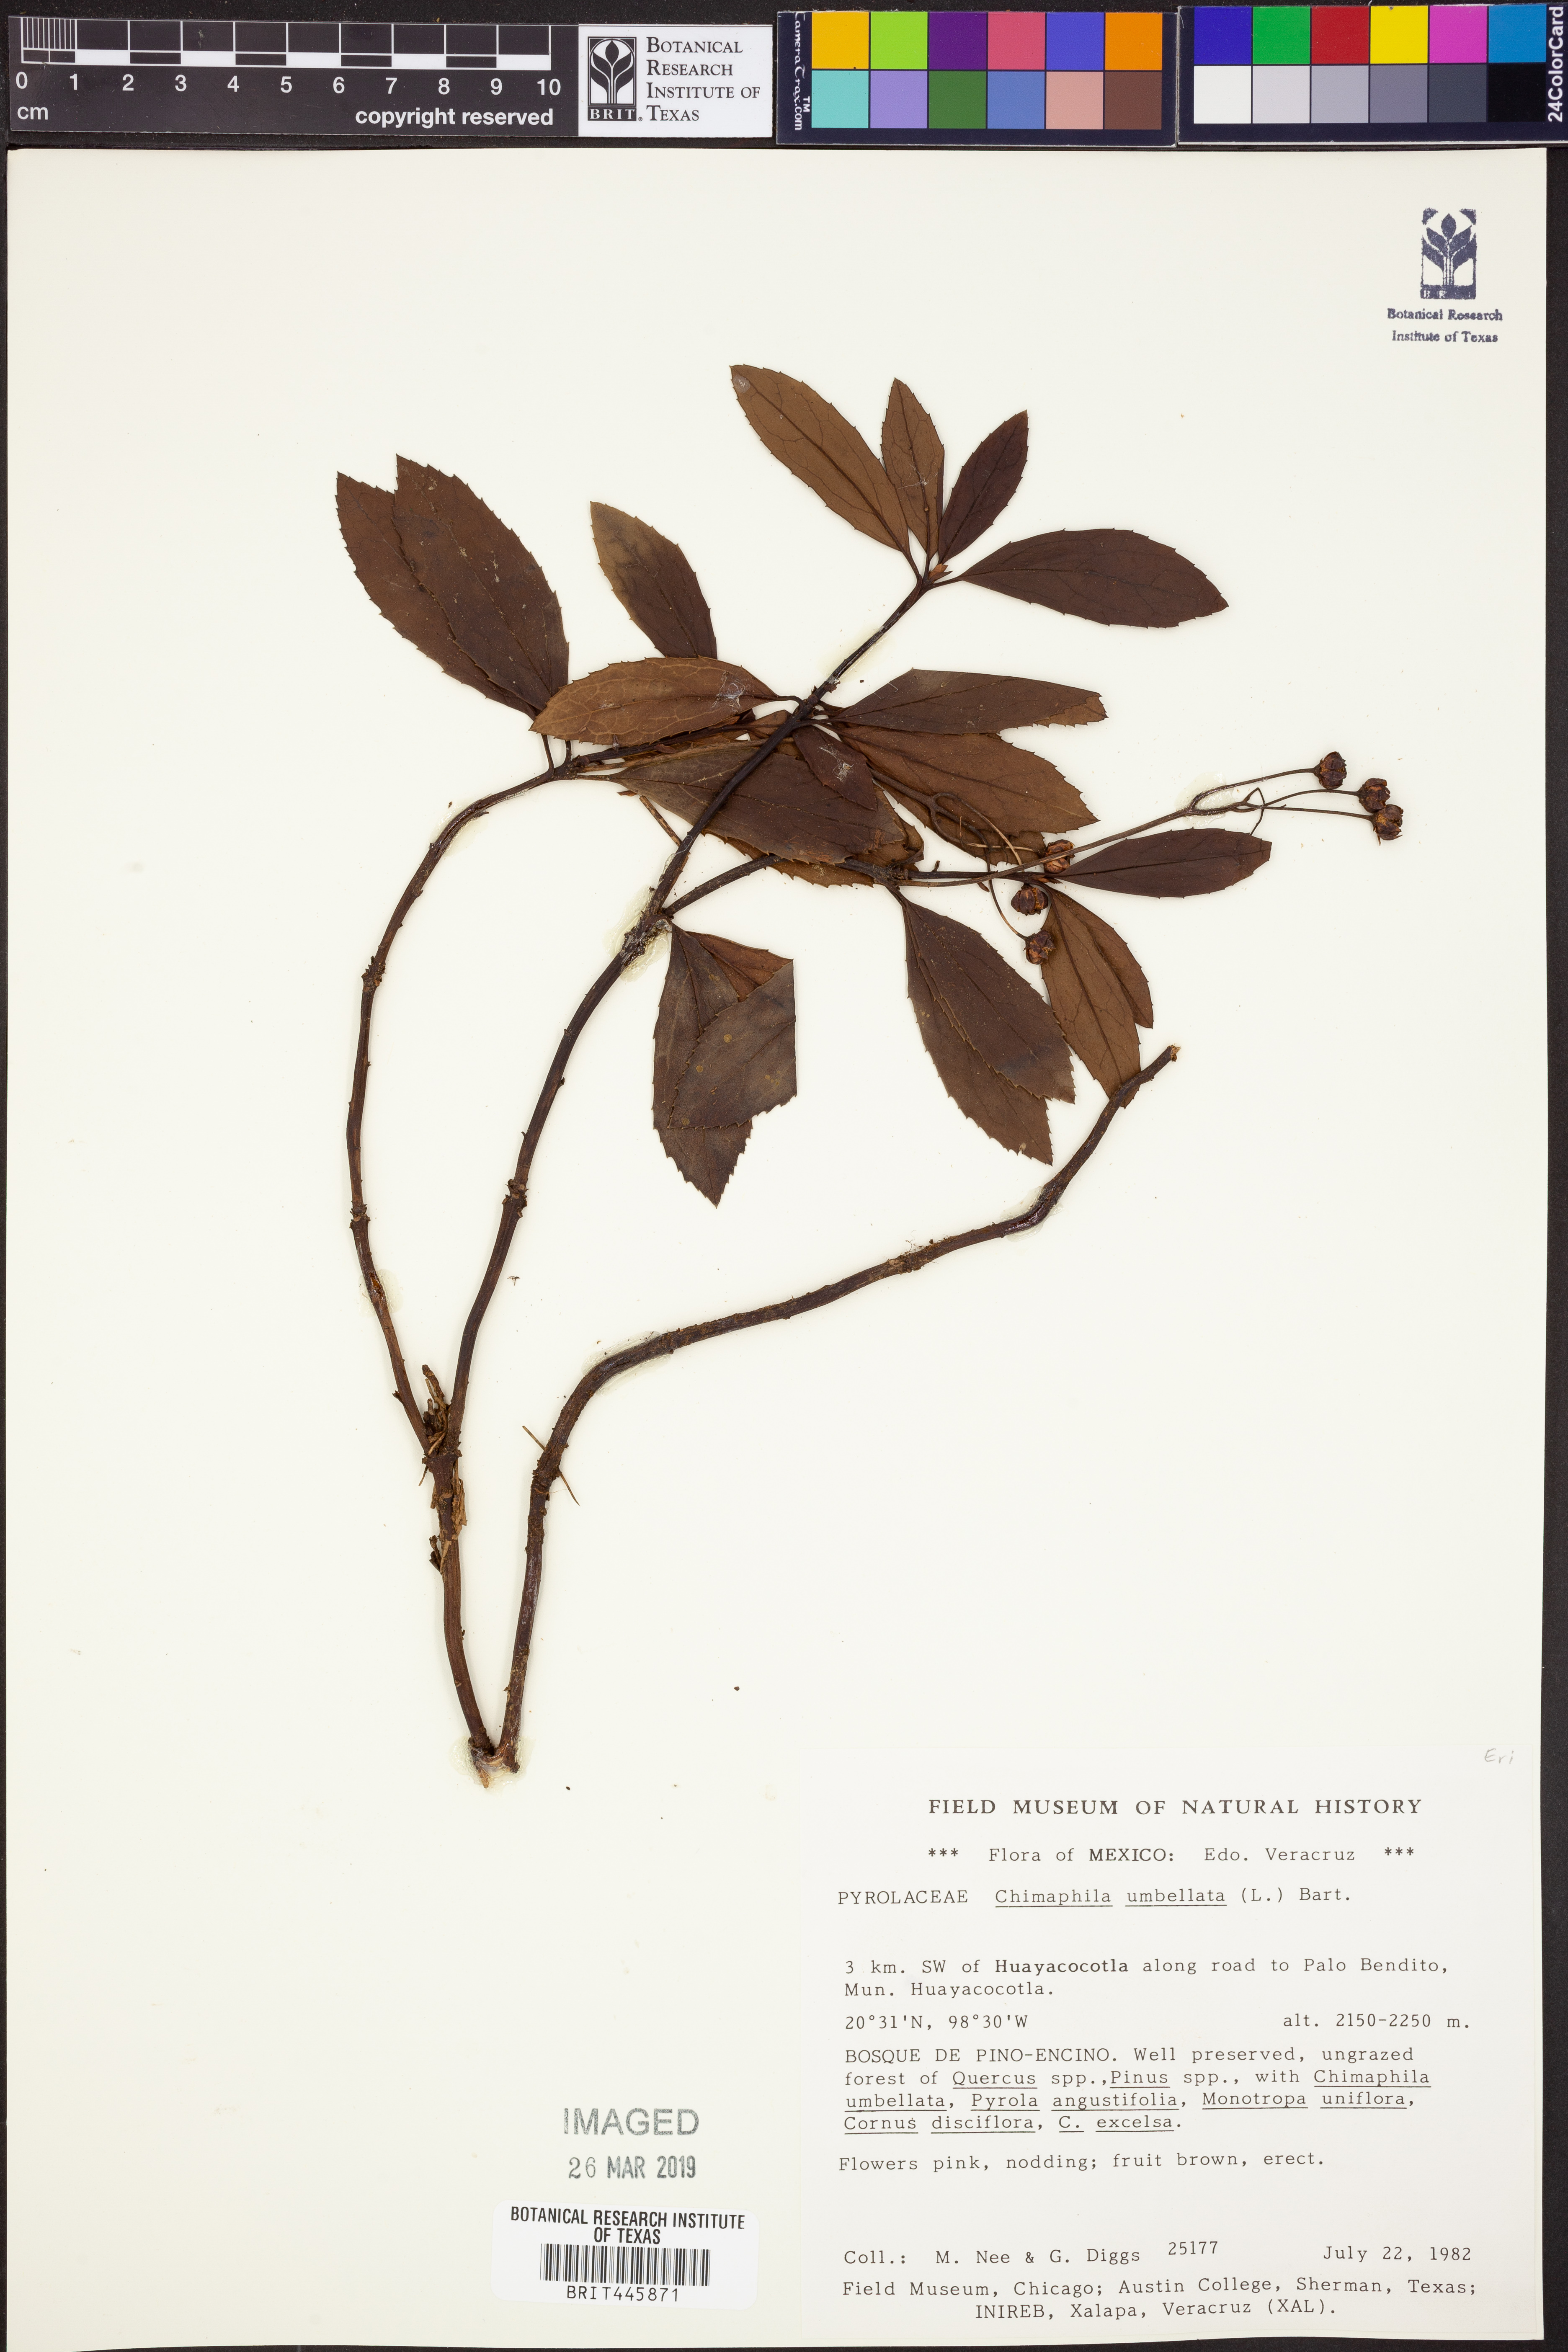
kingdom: Plantae
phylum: Tracheophyta
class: Magnoliopsida
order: Ericales
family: Ericaceae
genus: Chimaphila
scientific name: Chimaphila umbellata
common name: Pipsissewa
